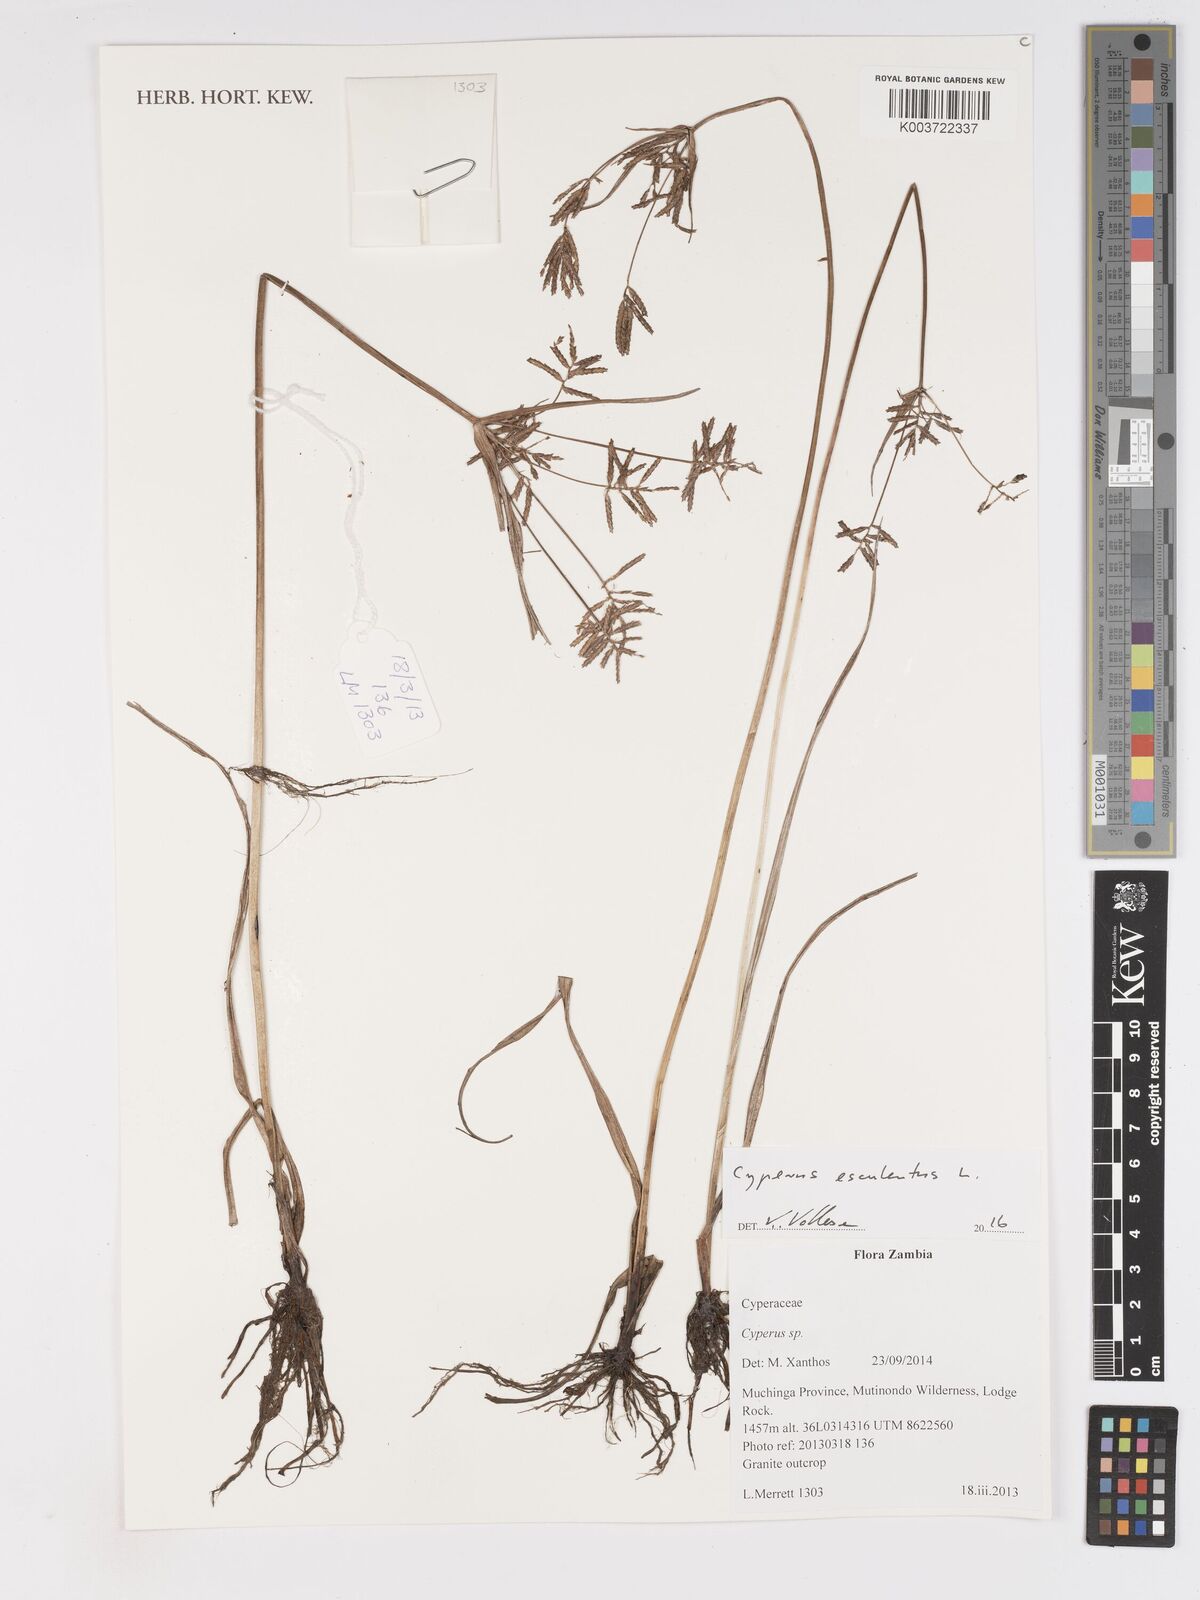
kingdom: Plantae
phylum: Tracheophyta
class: Liliopsida
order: Poales
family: Cyperaceae
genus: Cyperus
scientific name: Cyperus esculentus
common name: Yellow nutsedge
